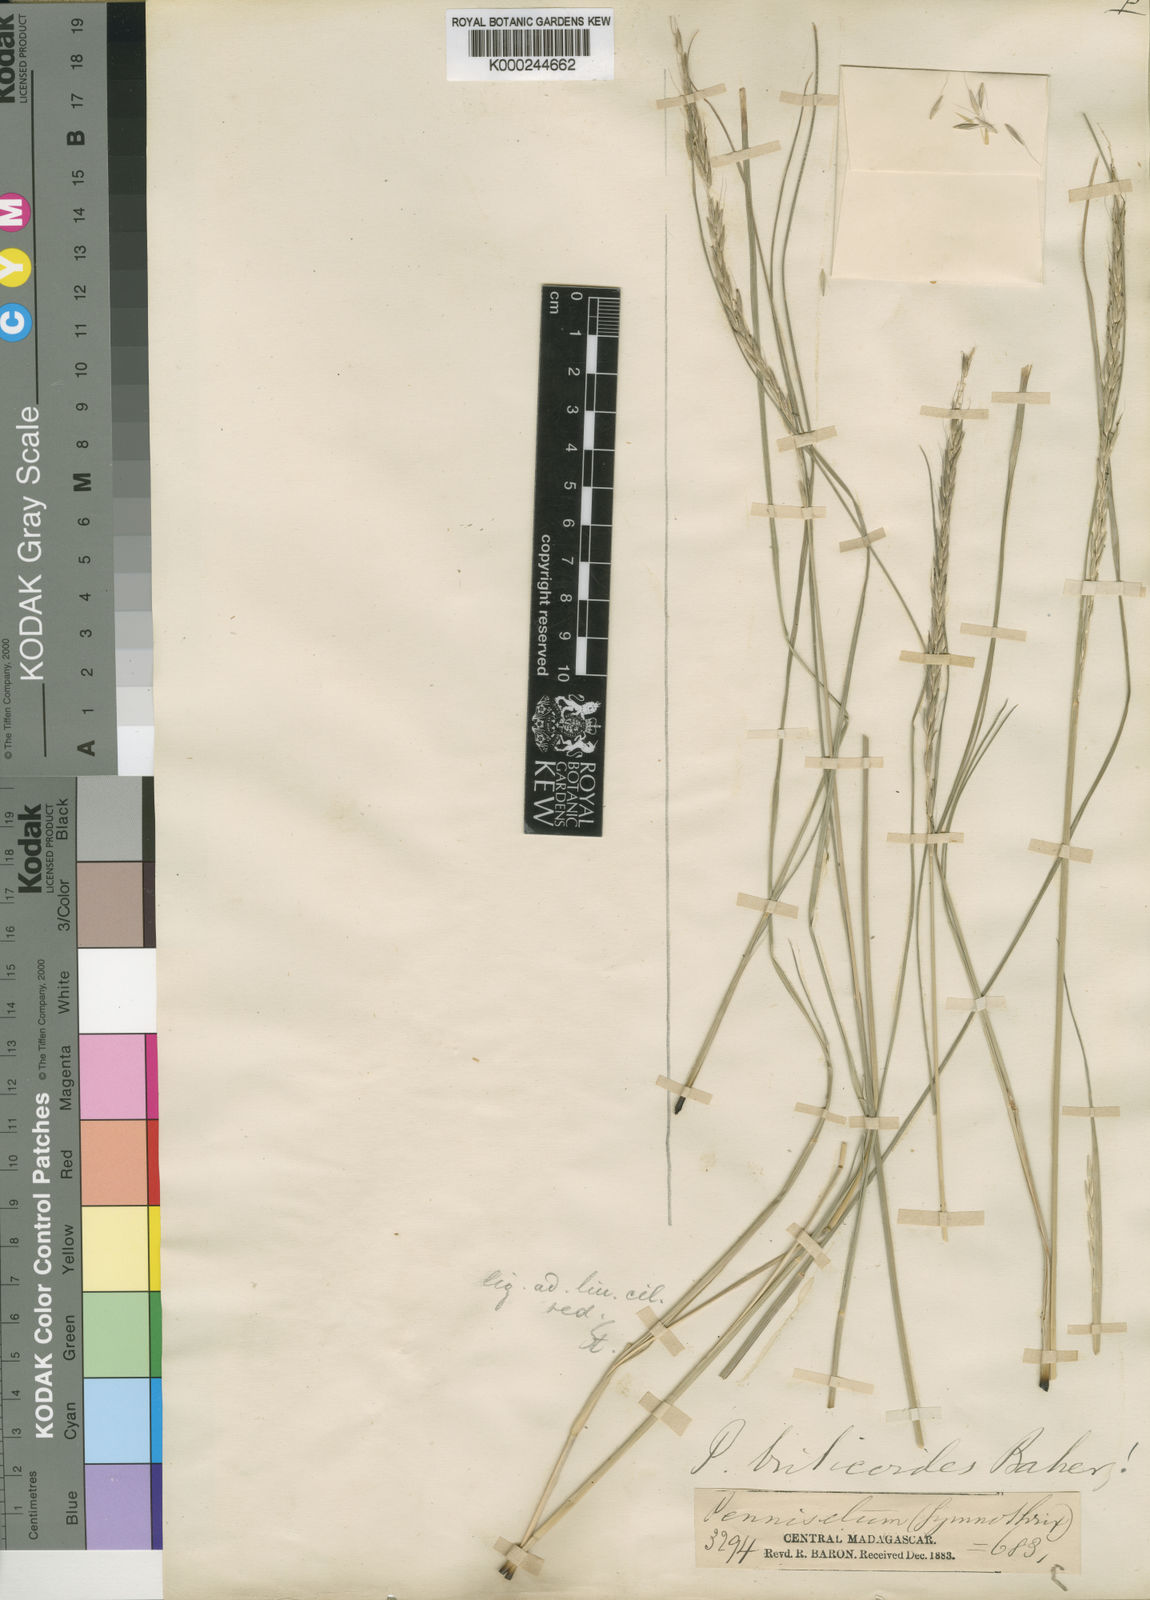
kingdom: Plantae
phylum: Tracheophyta
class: Liliopsida
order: Poales
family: Poaceae
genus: Cenchrus
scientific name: Cenchrus hohenackeri
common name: Moya grass
